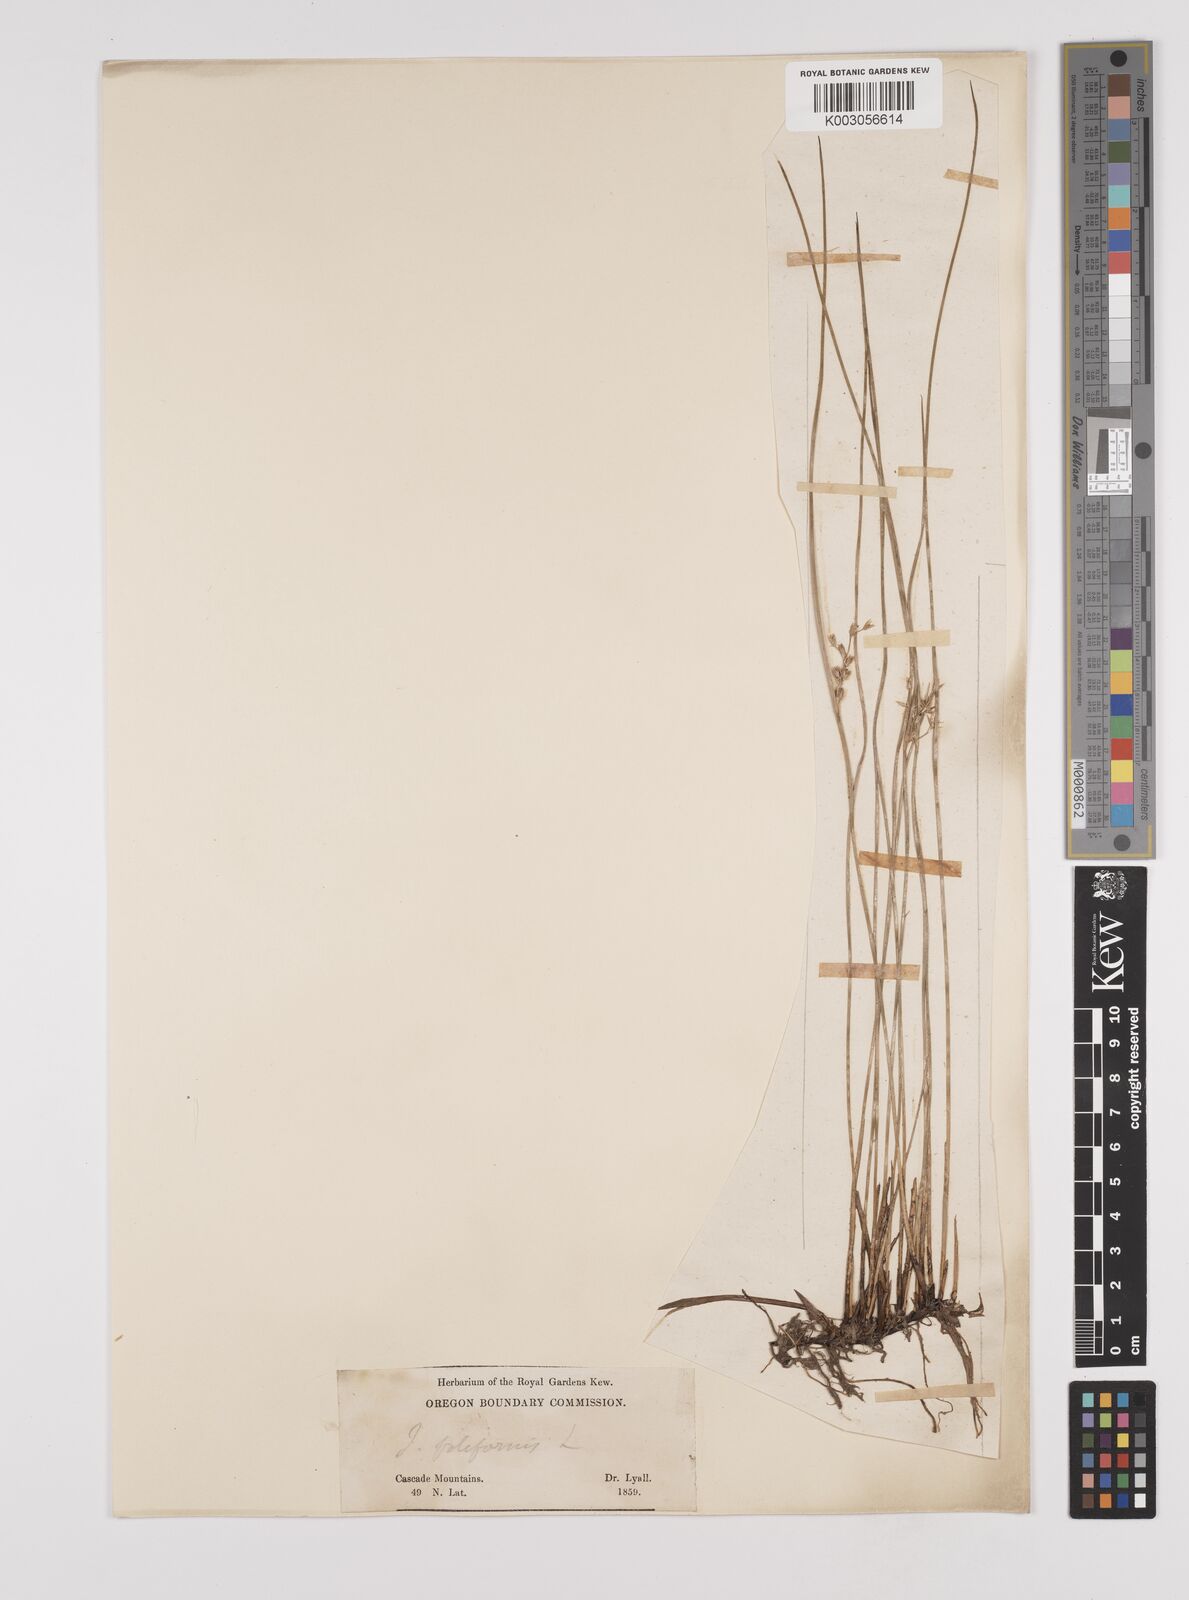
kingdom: Plantae
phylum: Tracheophyta
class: Liliopsida
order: Poales
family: Juncaceae
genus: Juncus
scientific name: Juncus filiformis
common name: Thread rush
